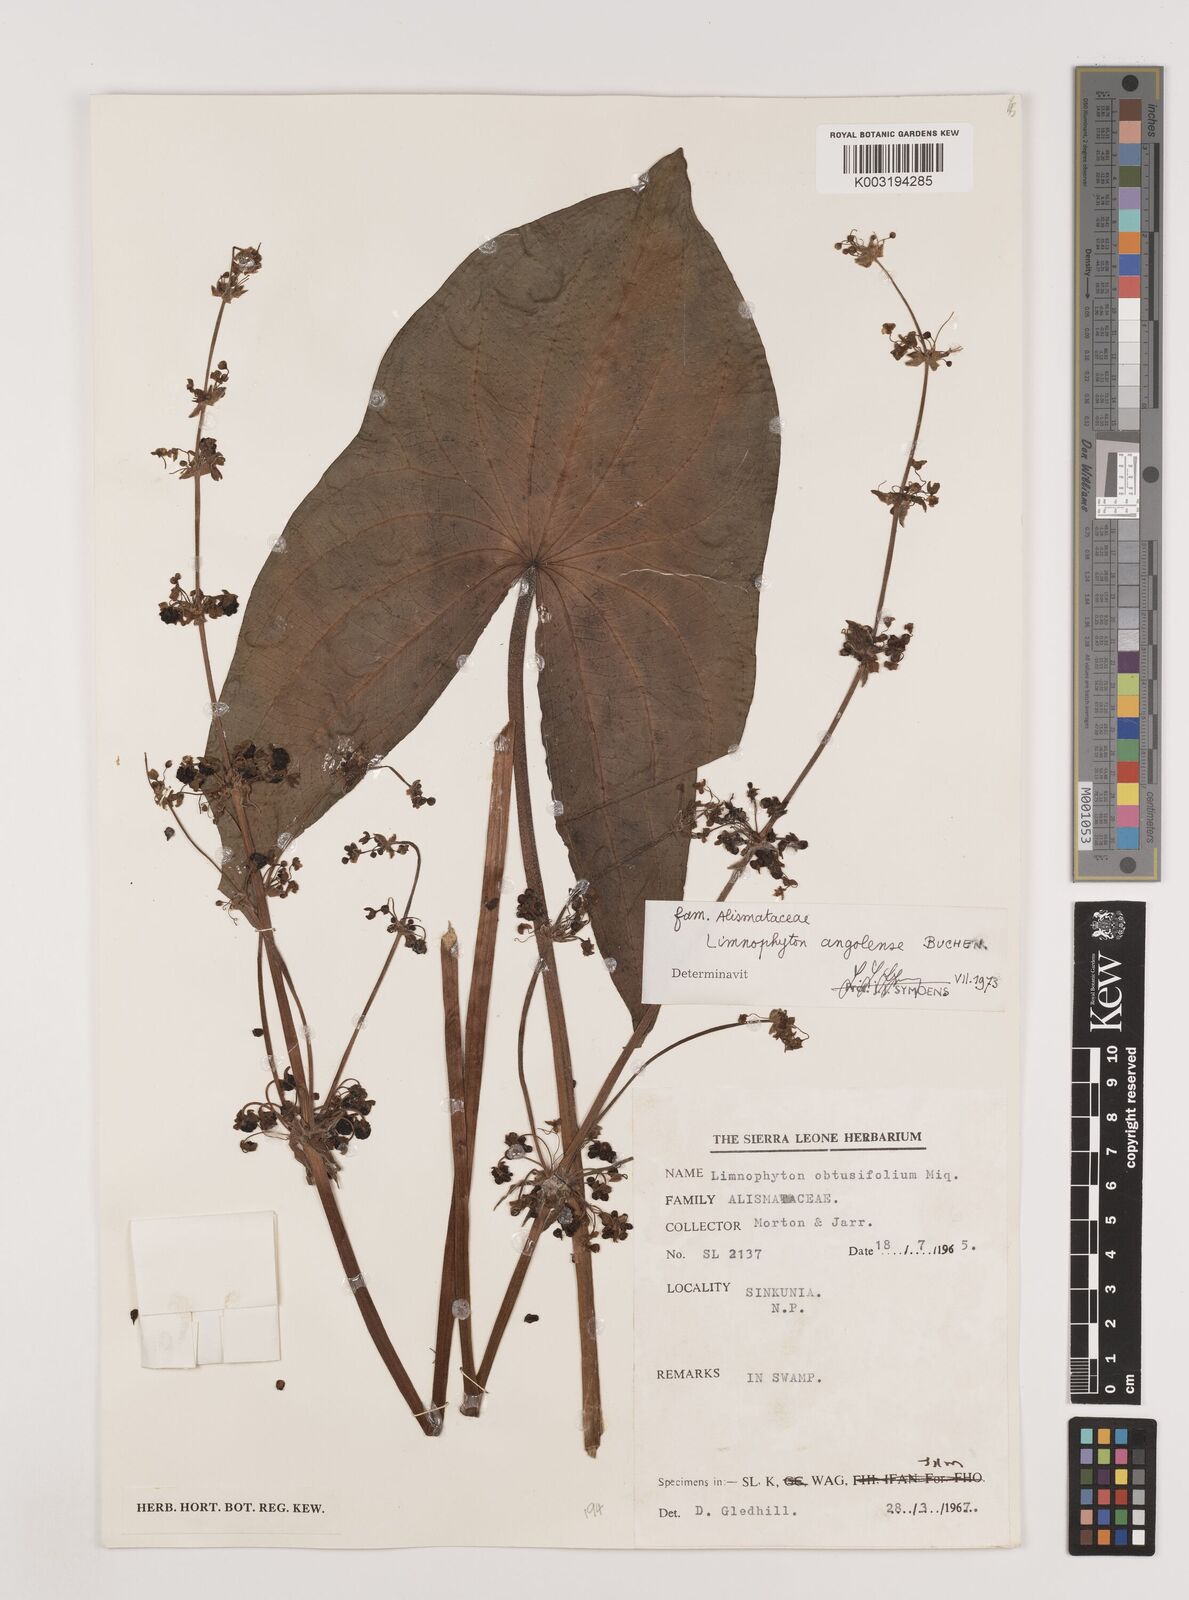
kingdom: Plantae
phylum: Tracheophyta
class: Liliopsida
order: Alismatales
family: Alismataceae
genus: Limnophyton
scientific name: Limnophyton angolense
